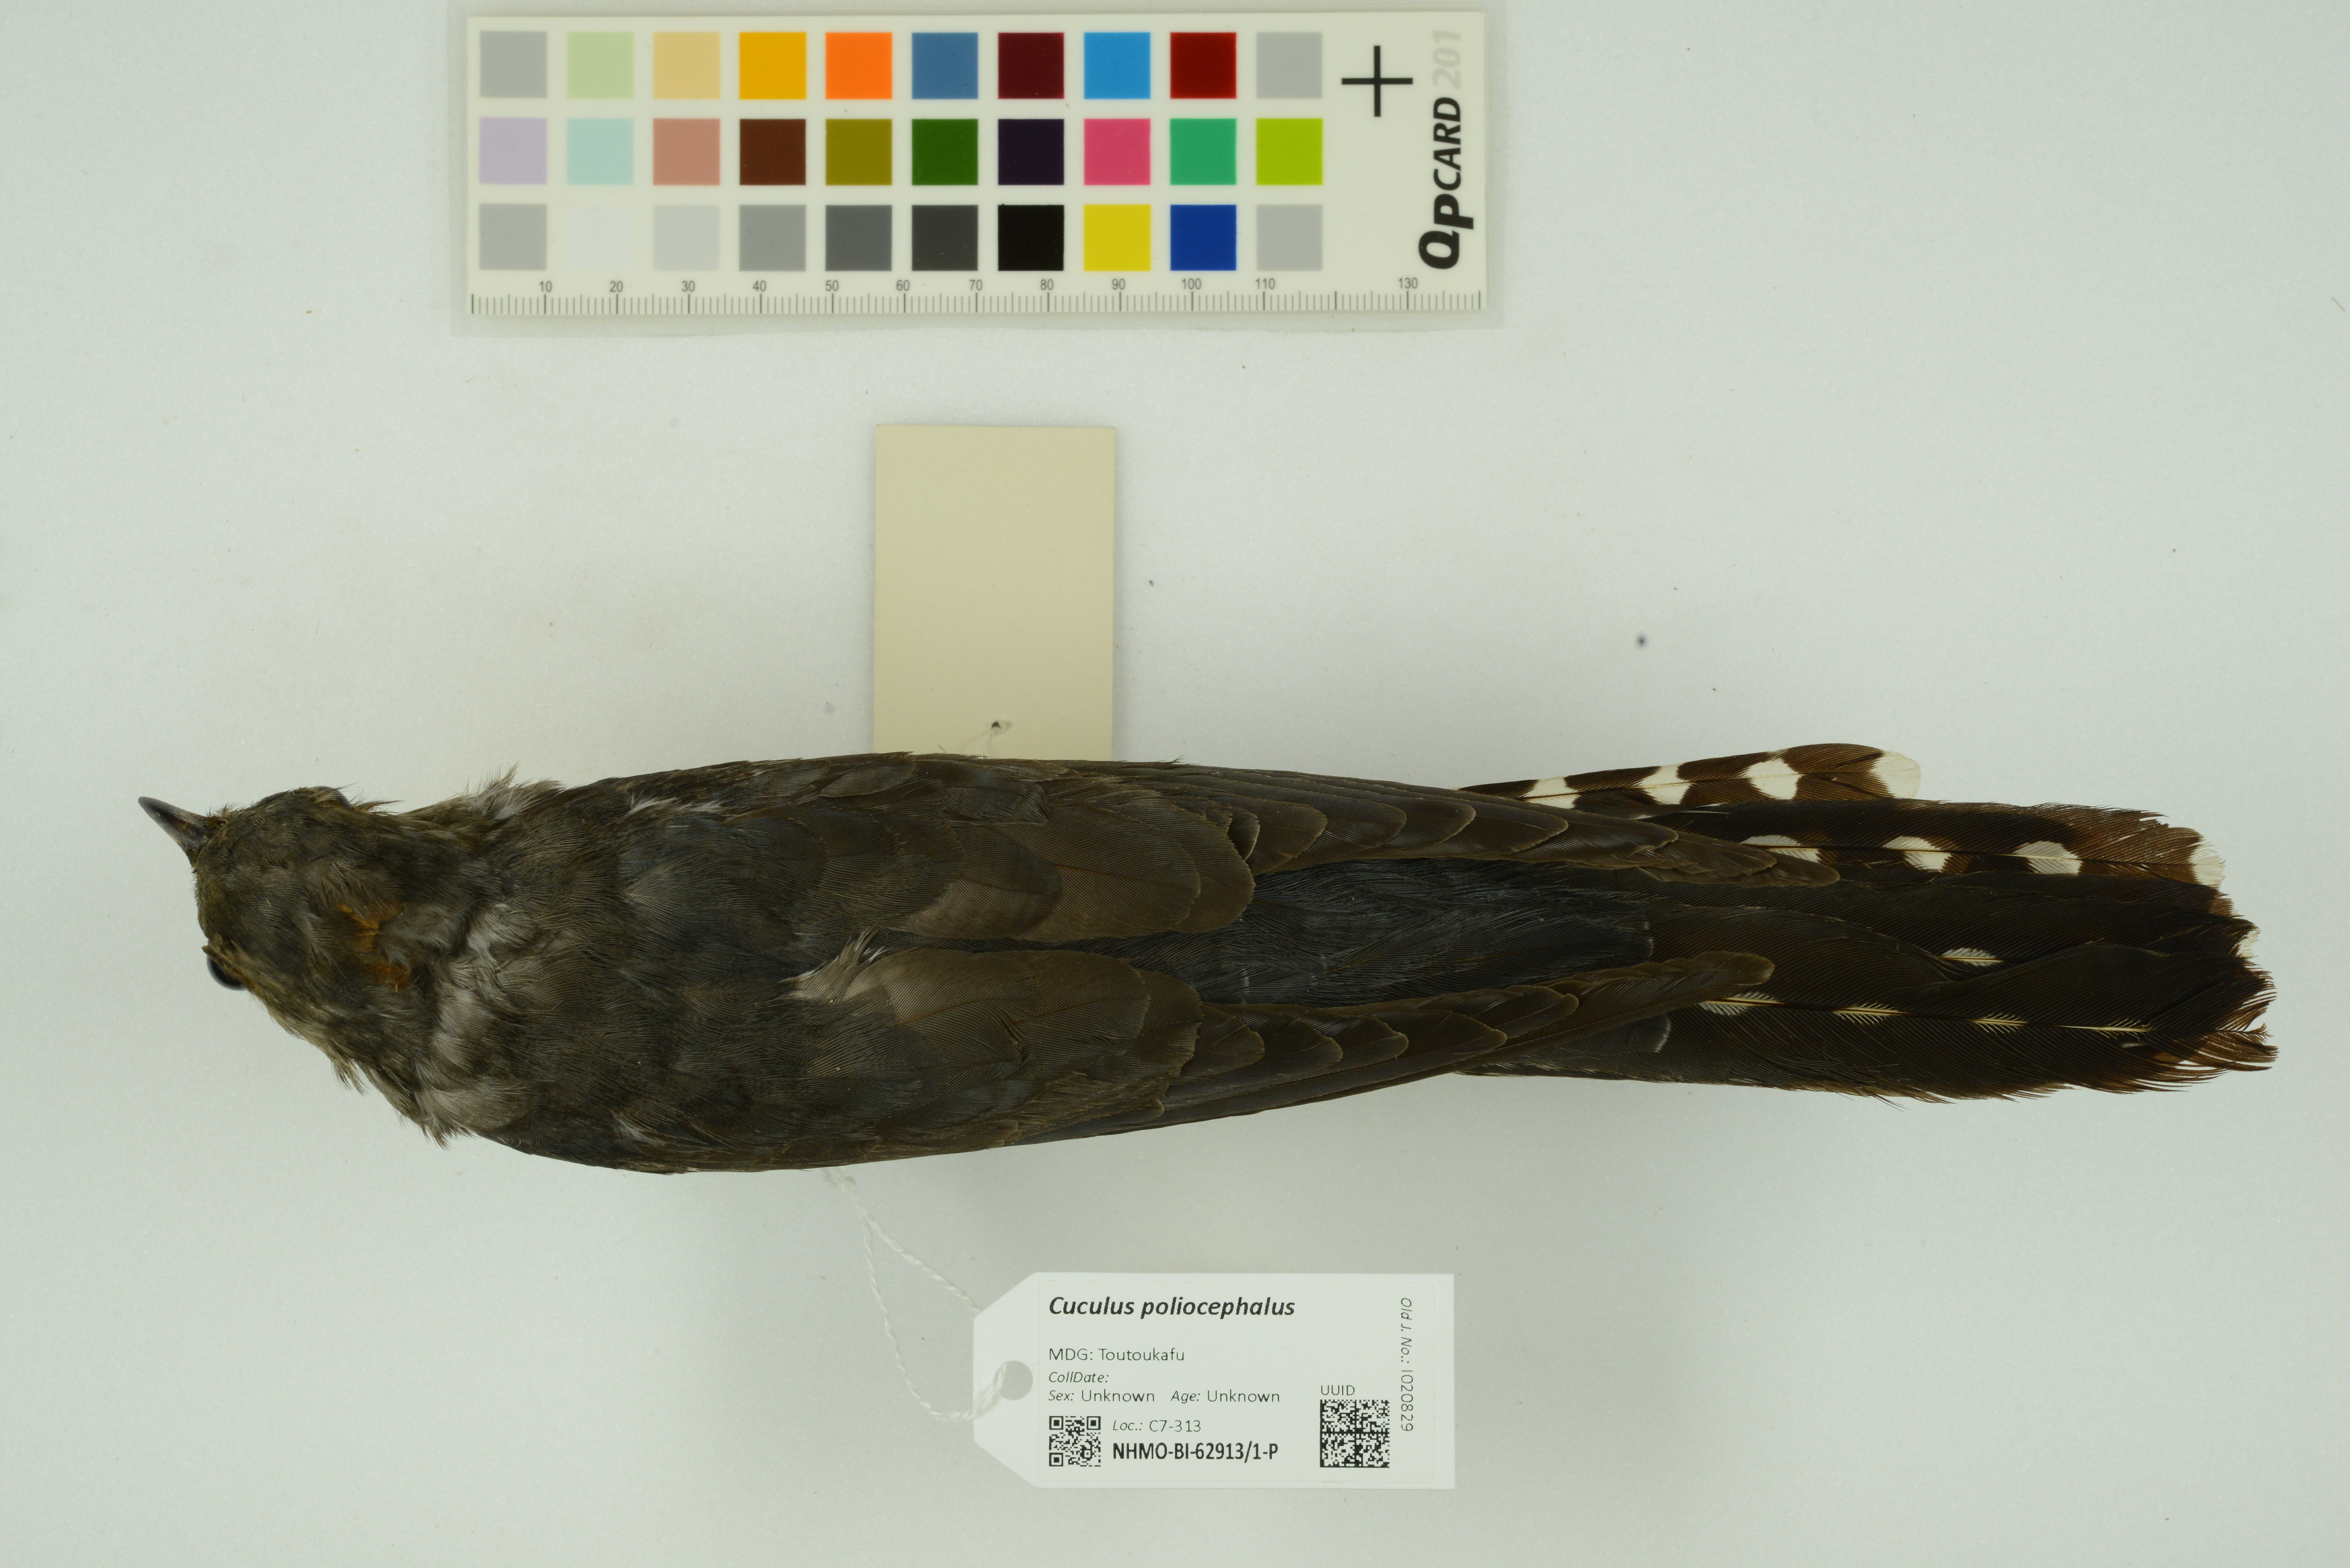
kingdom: Animalia
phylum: Chordata
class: Aves
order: Cuculiformes
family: Cuculidae
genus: Cuculus
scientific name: Cuculus poliocephalus
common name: Lesser cuckoo
